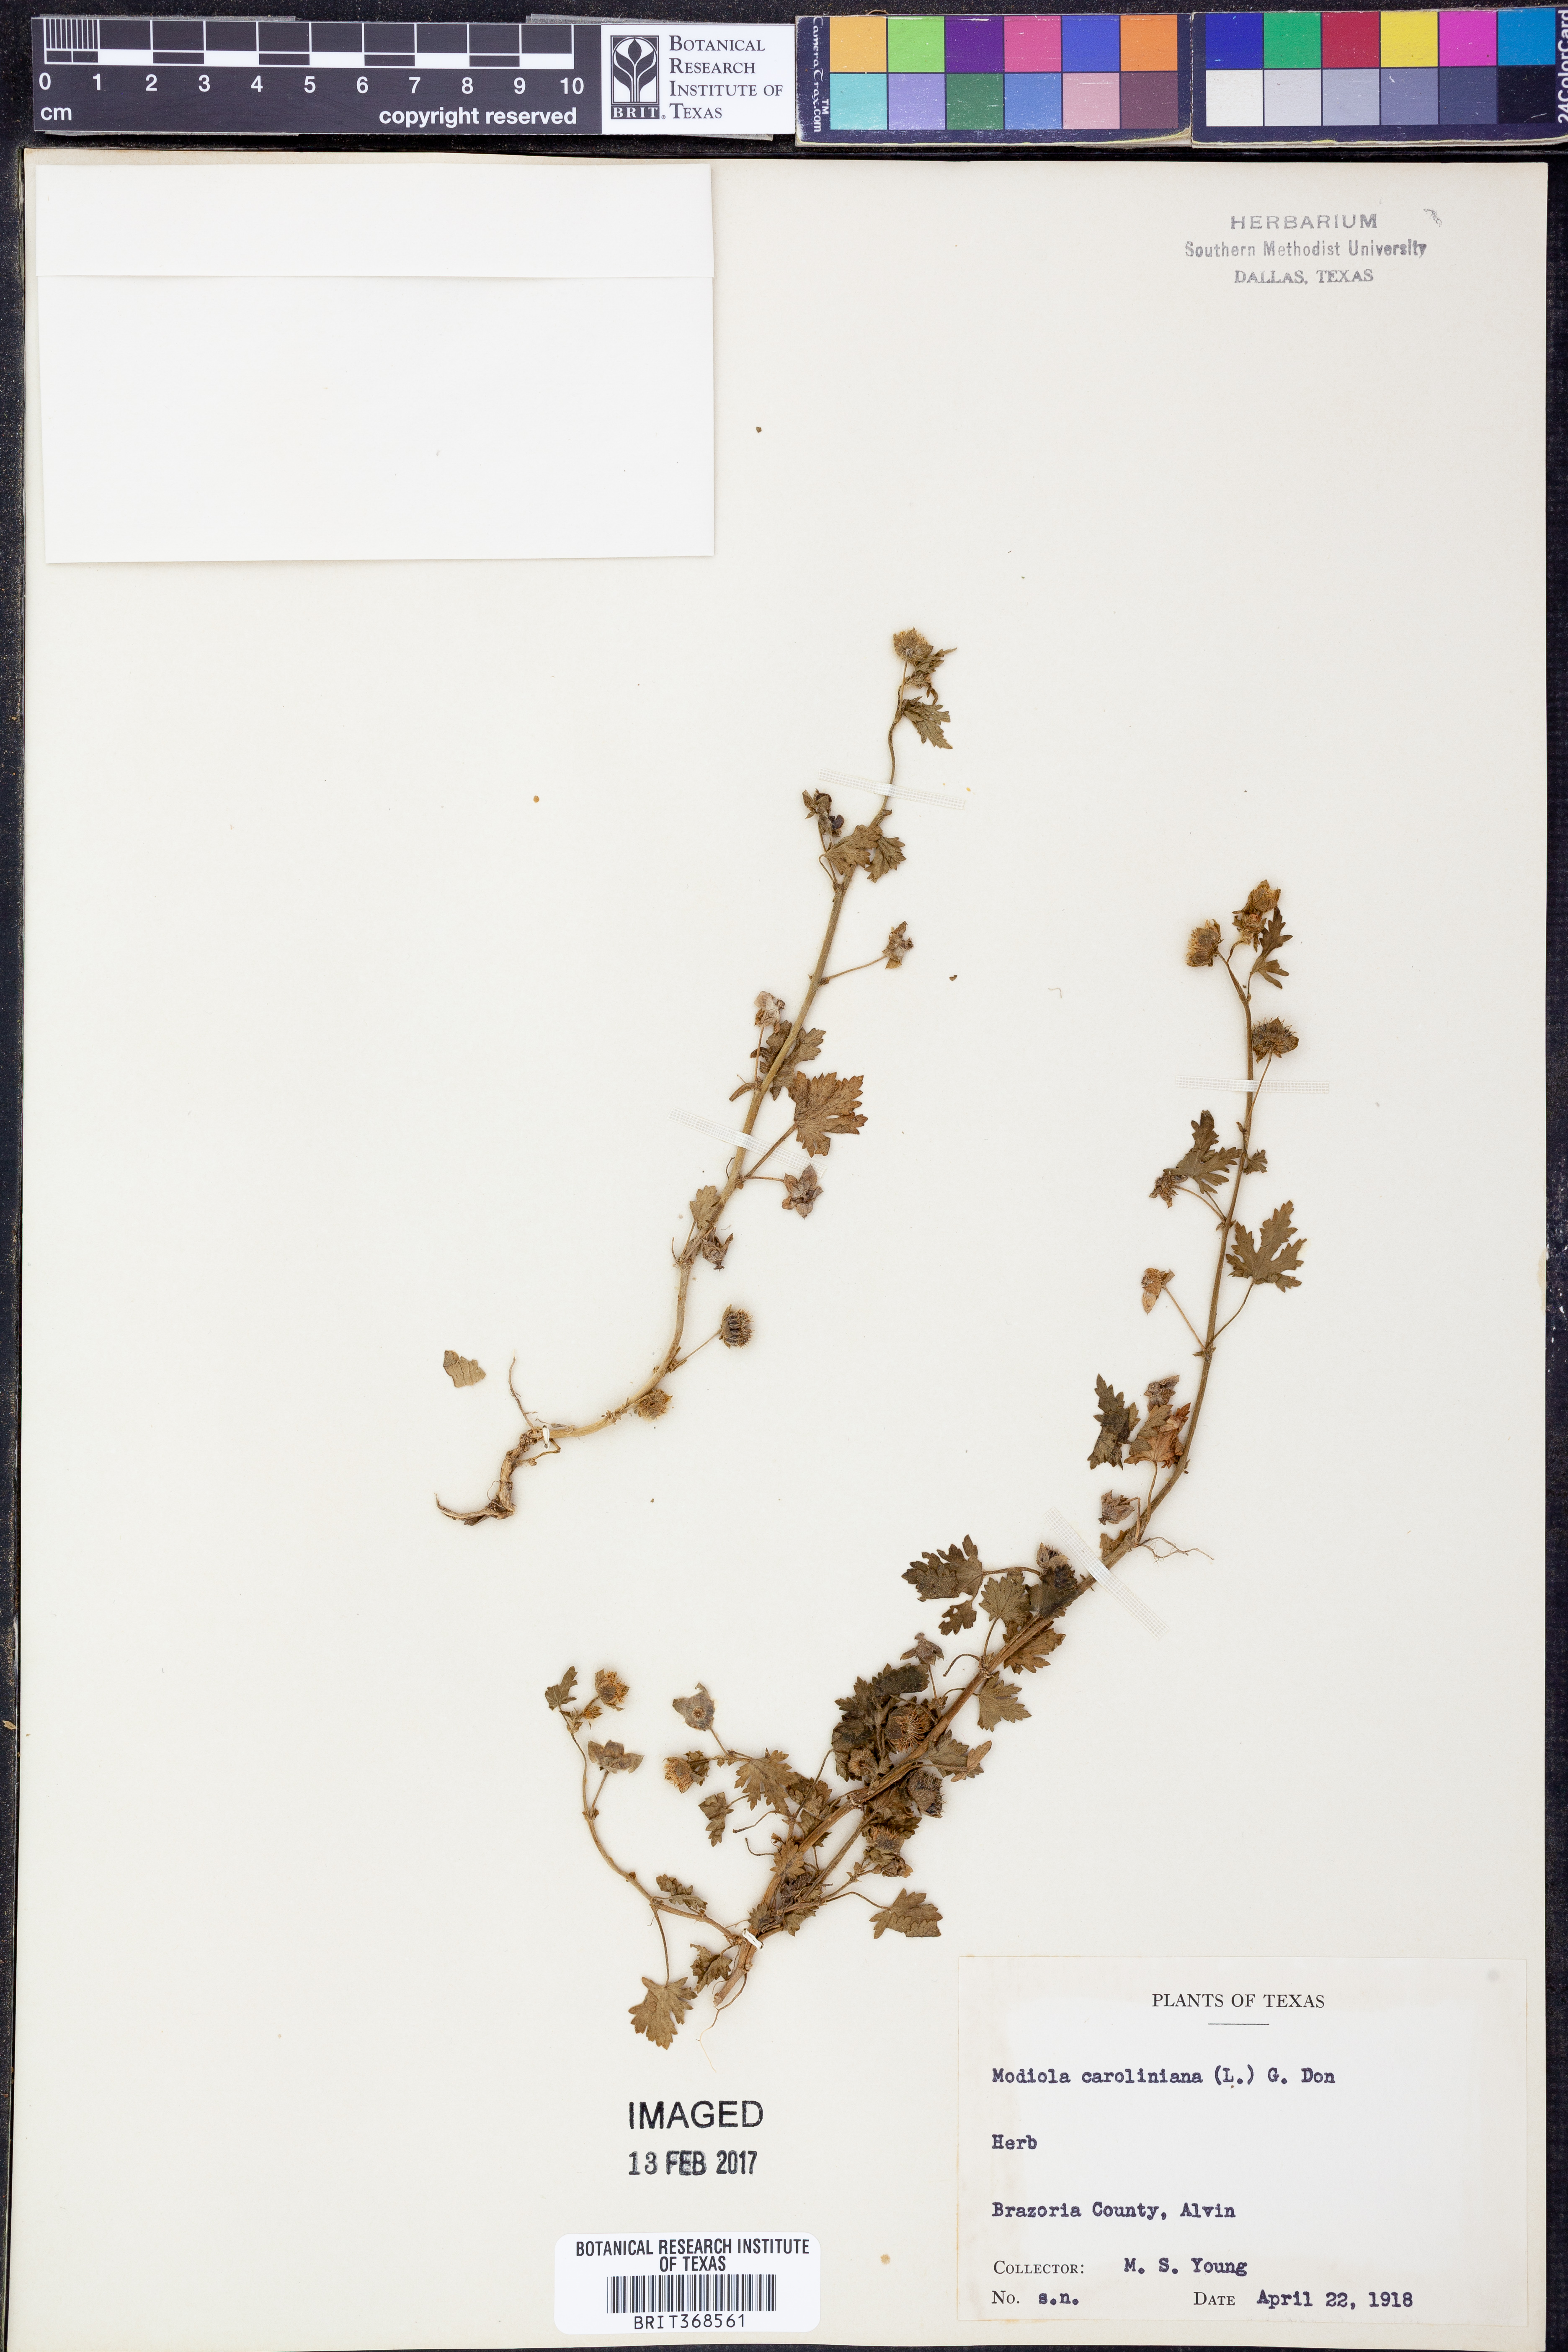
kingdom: Plantae
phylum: Tracheophyta
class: Magnoliopsida
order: Malvales
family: Malvaceae
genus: Modiola
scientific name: Modiola caroliniana
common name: Carolina bristlemallow
